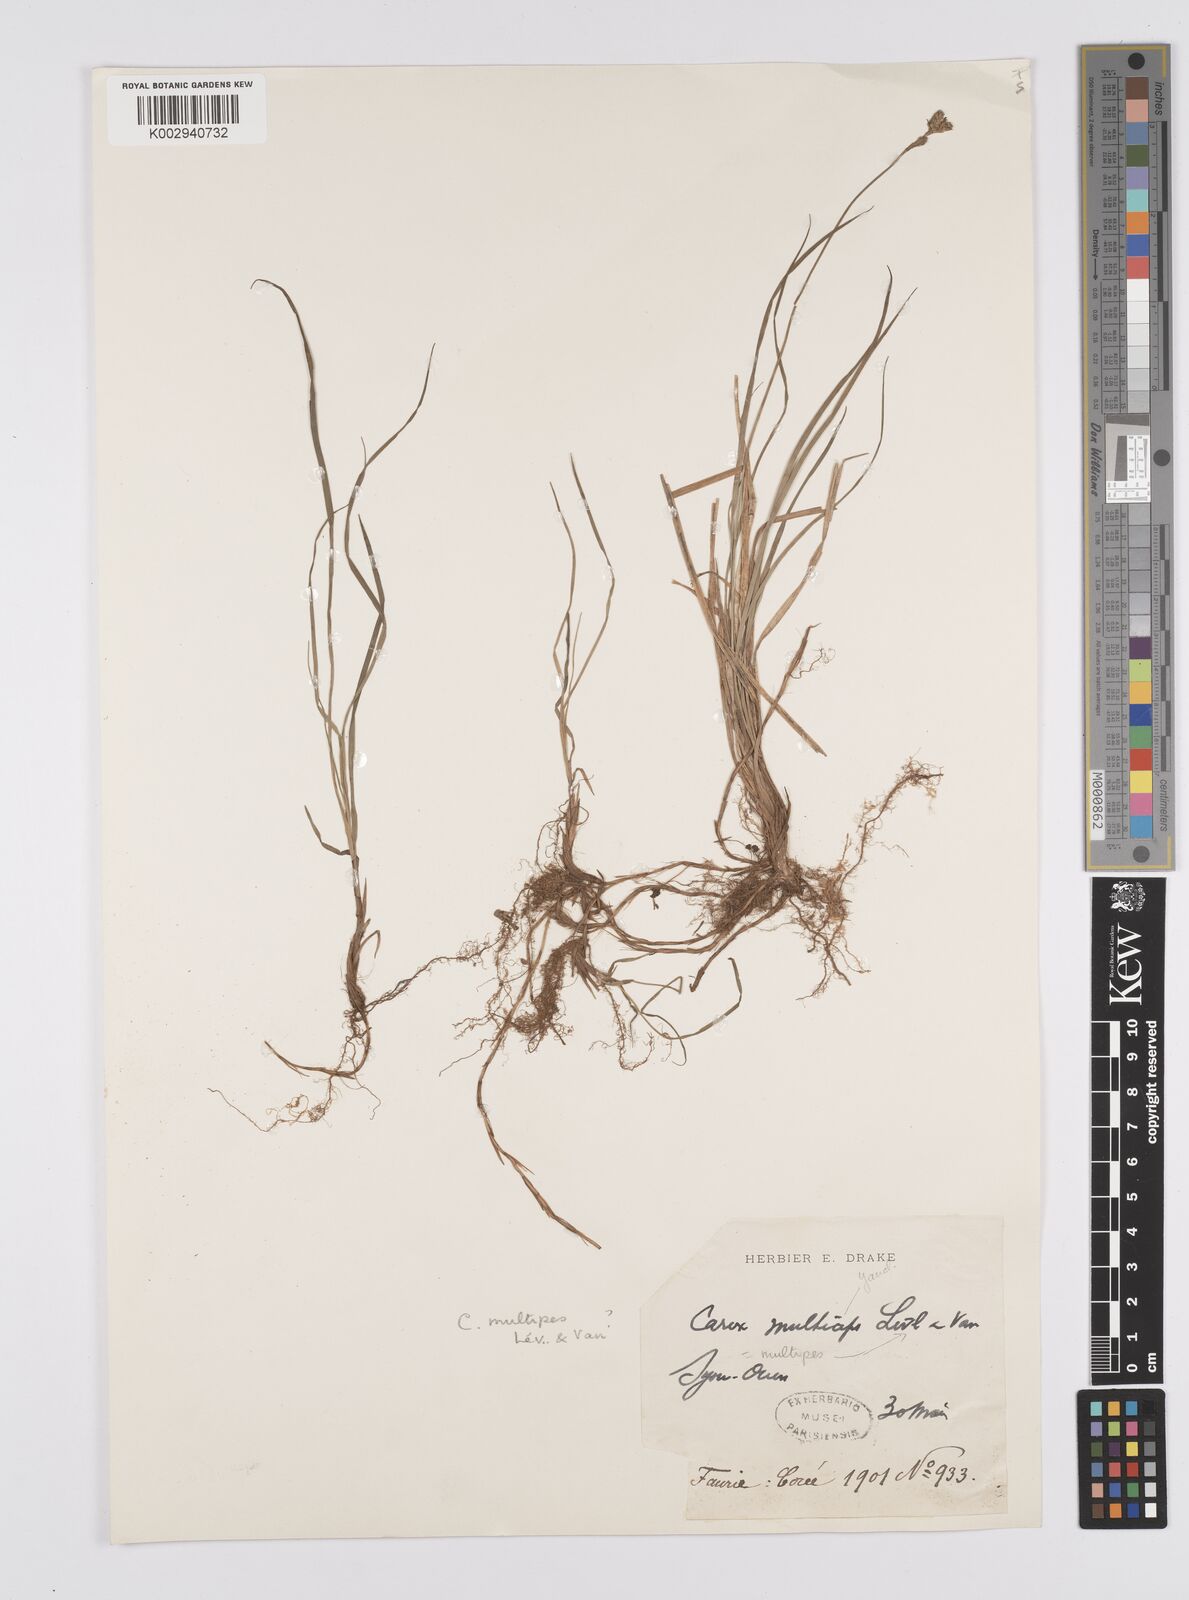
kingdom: Plantae
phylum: Tracheophyta
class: Liliopsida
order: Poales
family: Cyperaceae
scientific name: Cyperaceae
